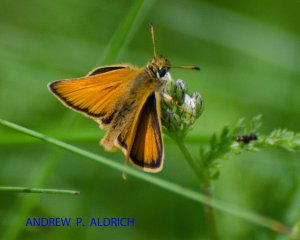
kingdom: Animalia
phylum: Arthropoda
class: Insecta
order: Lepidoptera
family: Hesperiidae
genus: Thymelicus
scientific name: Thymelicus lineola
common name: European Skipper
